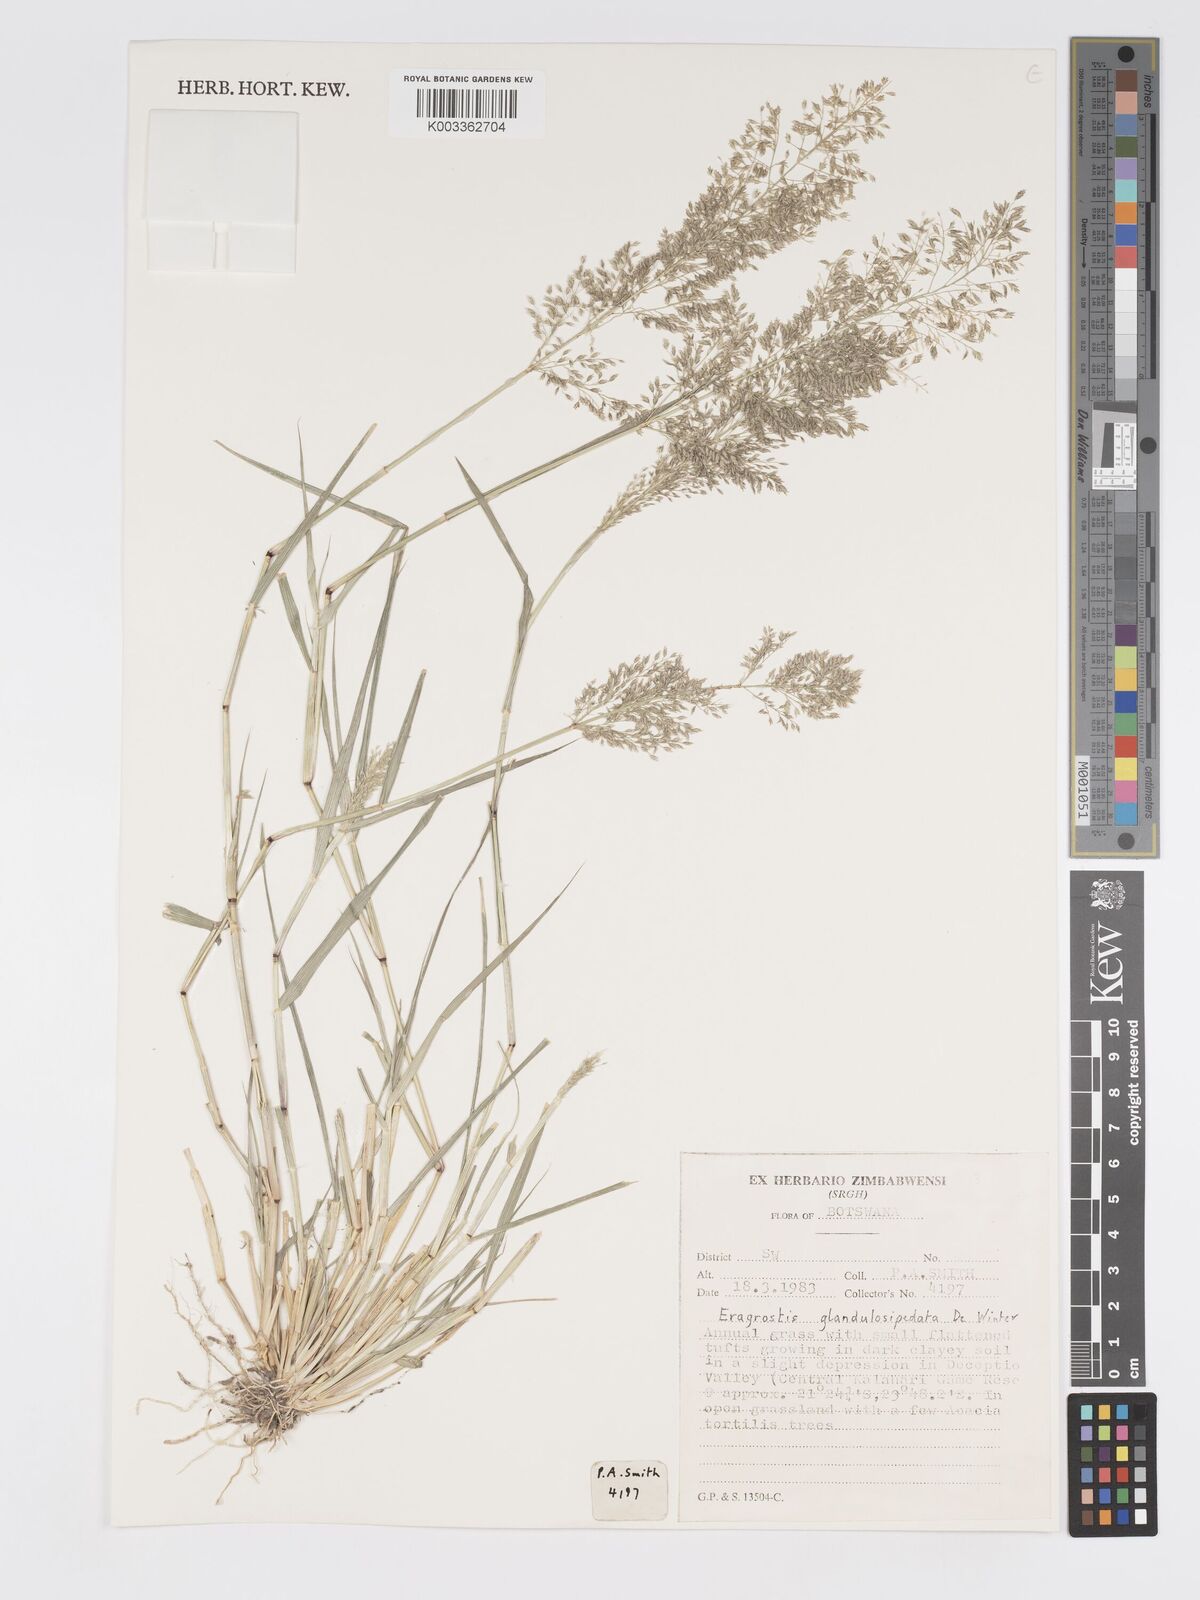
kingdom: Plantae
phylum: Tracheophyta
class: Liliopsida
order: Poales
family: Poaceae
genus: Eragrostis
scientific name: Eragrostis glandulosipedata
